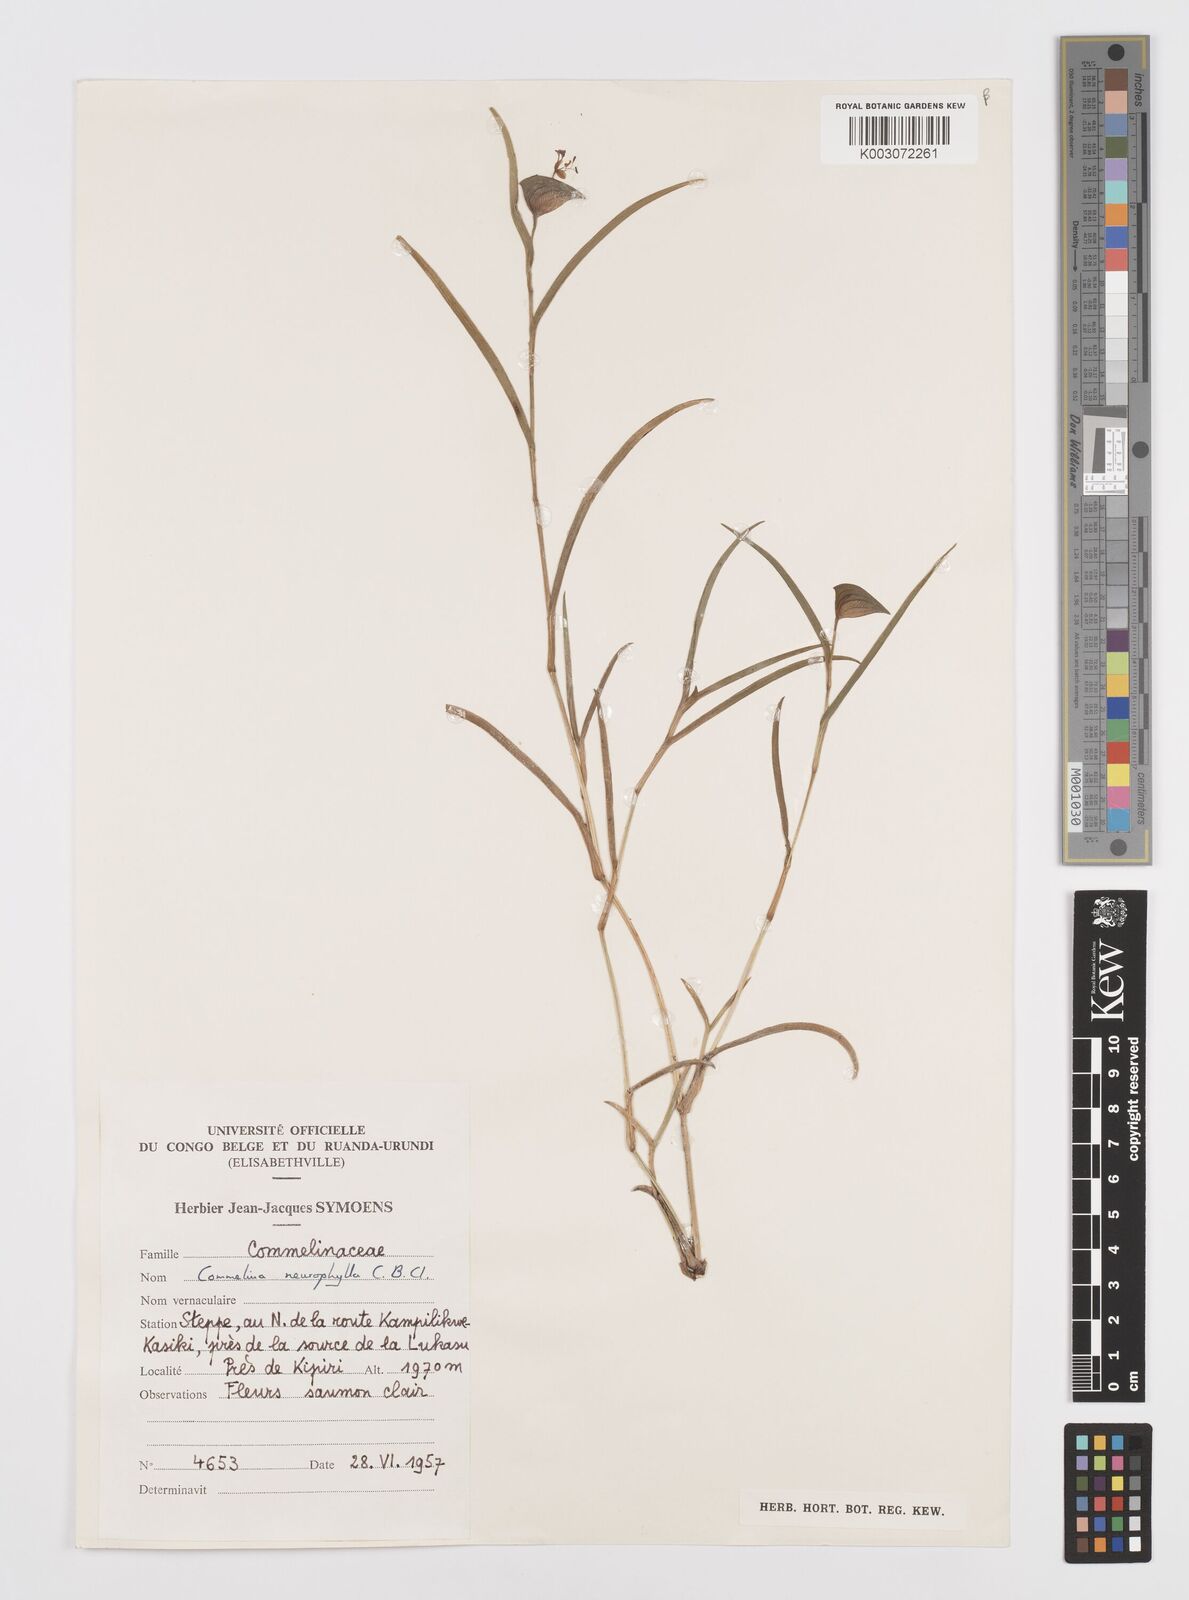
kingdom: Plantae
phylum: Tracheophyta
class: Liliopsida
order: Commelinales
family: Commelinaceae
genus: Commelina
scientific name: Commelina neurophylla
